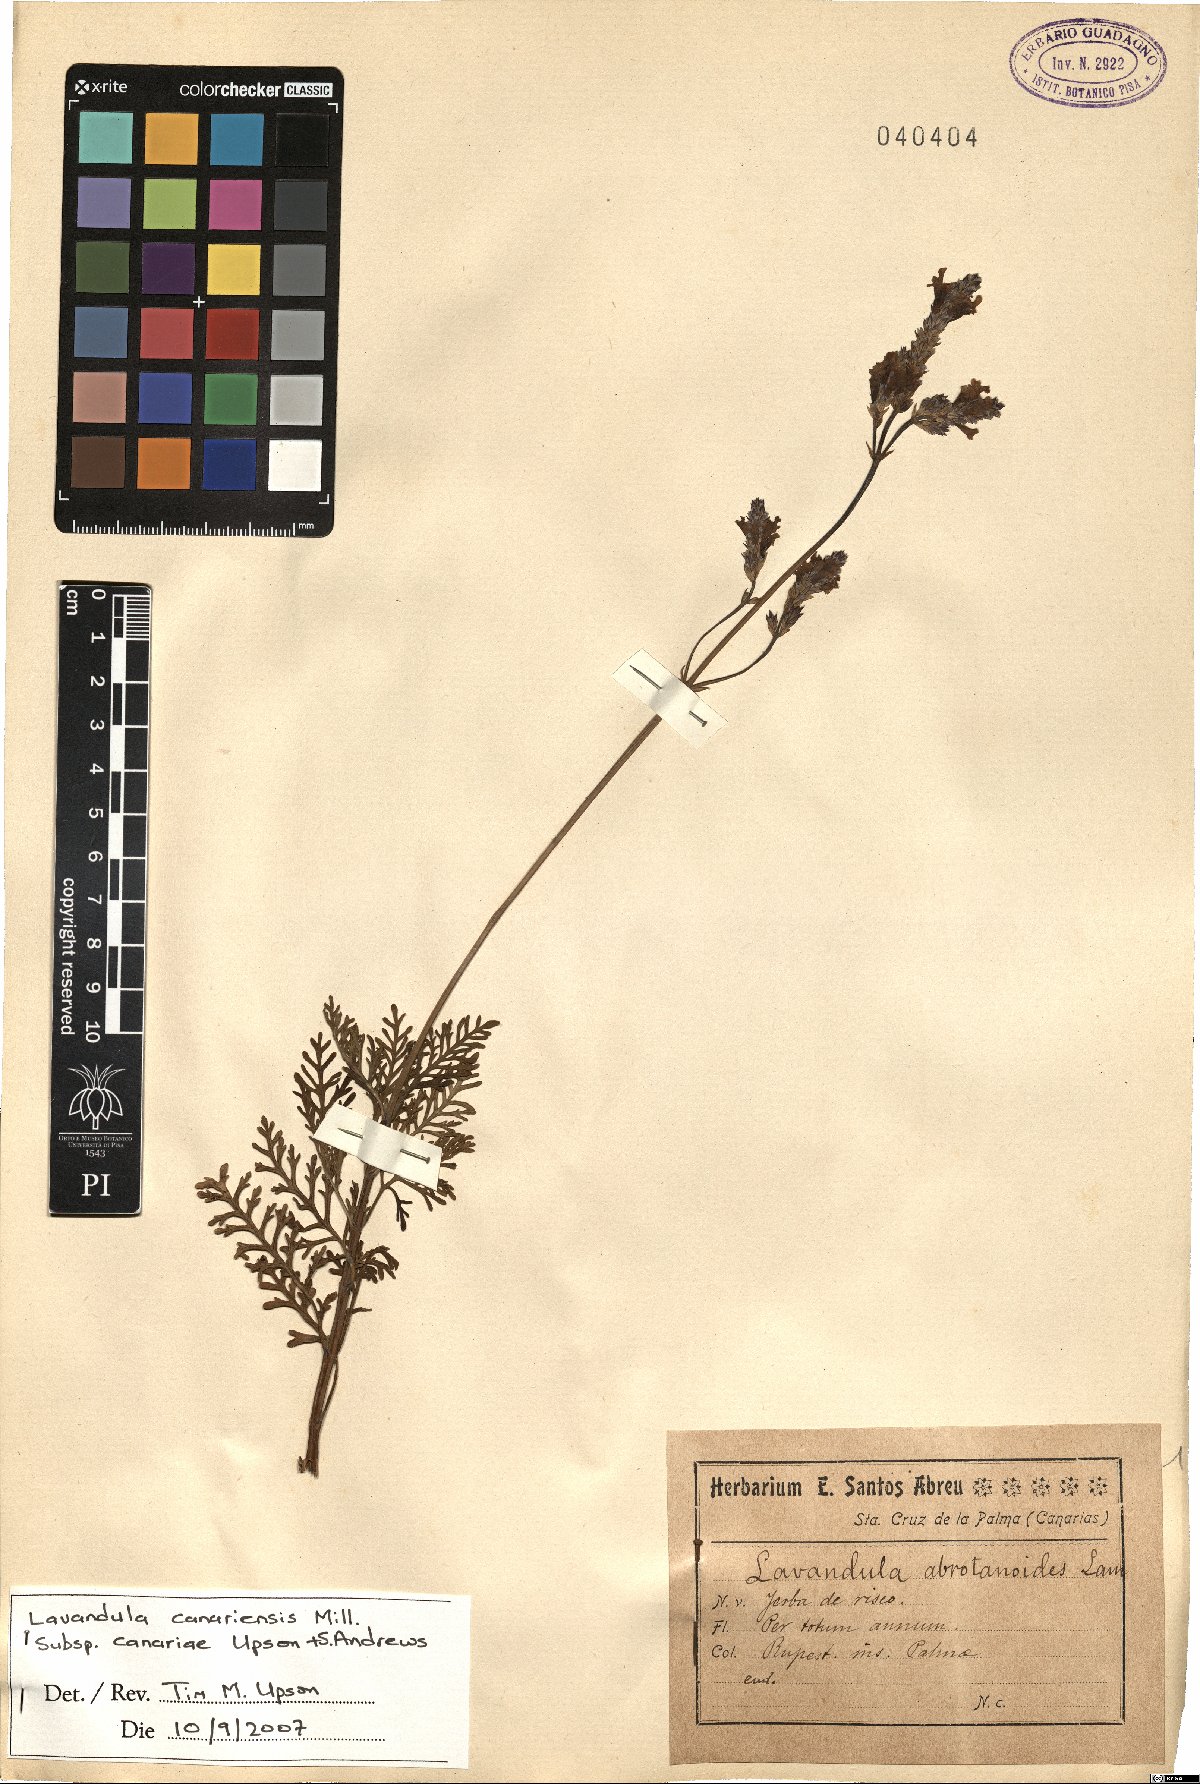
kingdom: Plantae
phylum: Tracheophyta
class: Magnoliopsida
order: Lamiales
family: Lamiaceae
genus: Lavandula
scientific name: Lavandula canariensis
